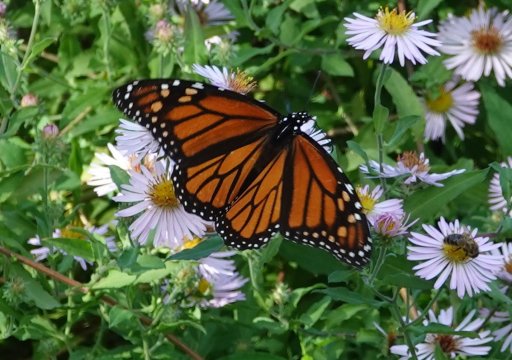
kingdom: Animalia
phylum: Arthropoda
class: Insecta
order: Lepidoptera
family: Nymphalidae
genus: Danaus
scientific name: Danaus plexippus
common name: Monarch
